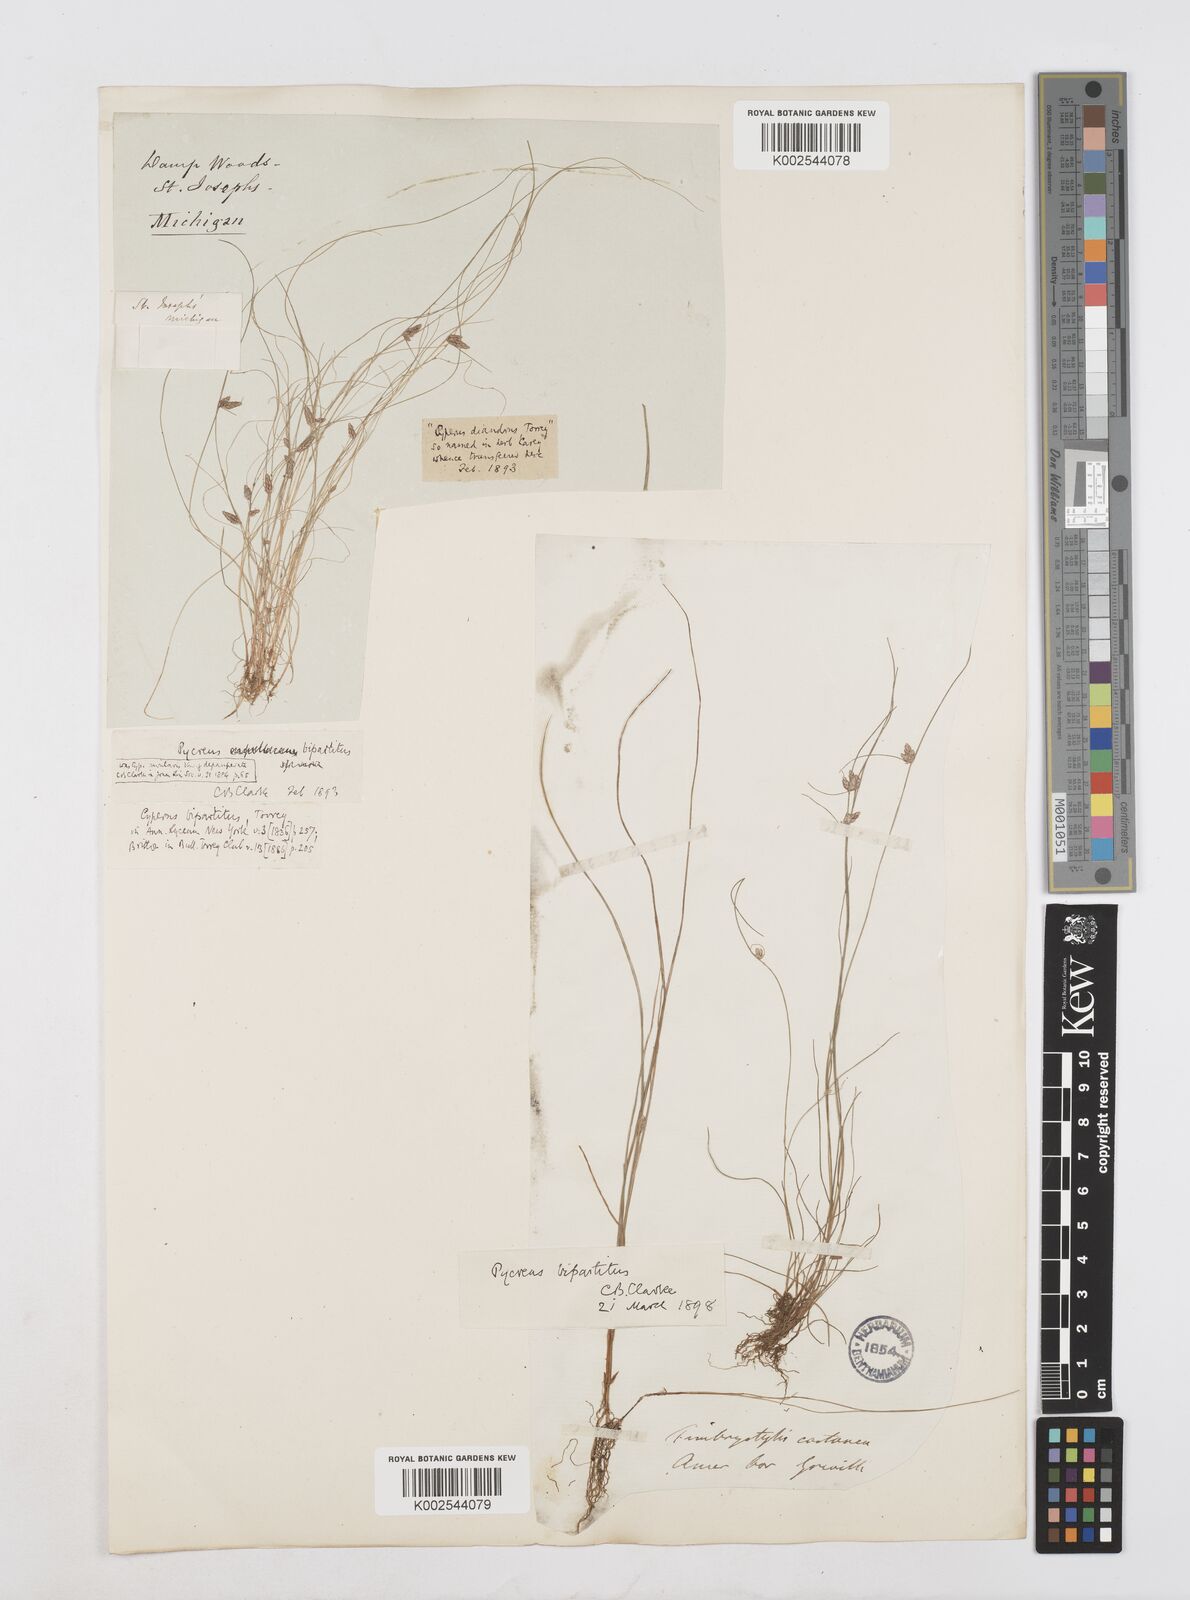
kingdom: Plantae
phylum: Tracheophyta
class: Liliopsida
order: Poales
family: Cyperaceae
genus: Cyperus
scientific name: Cyperus bipartitus
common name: Brook flatsedge
